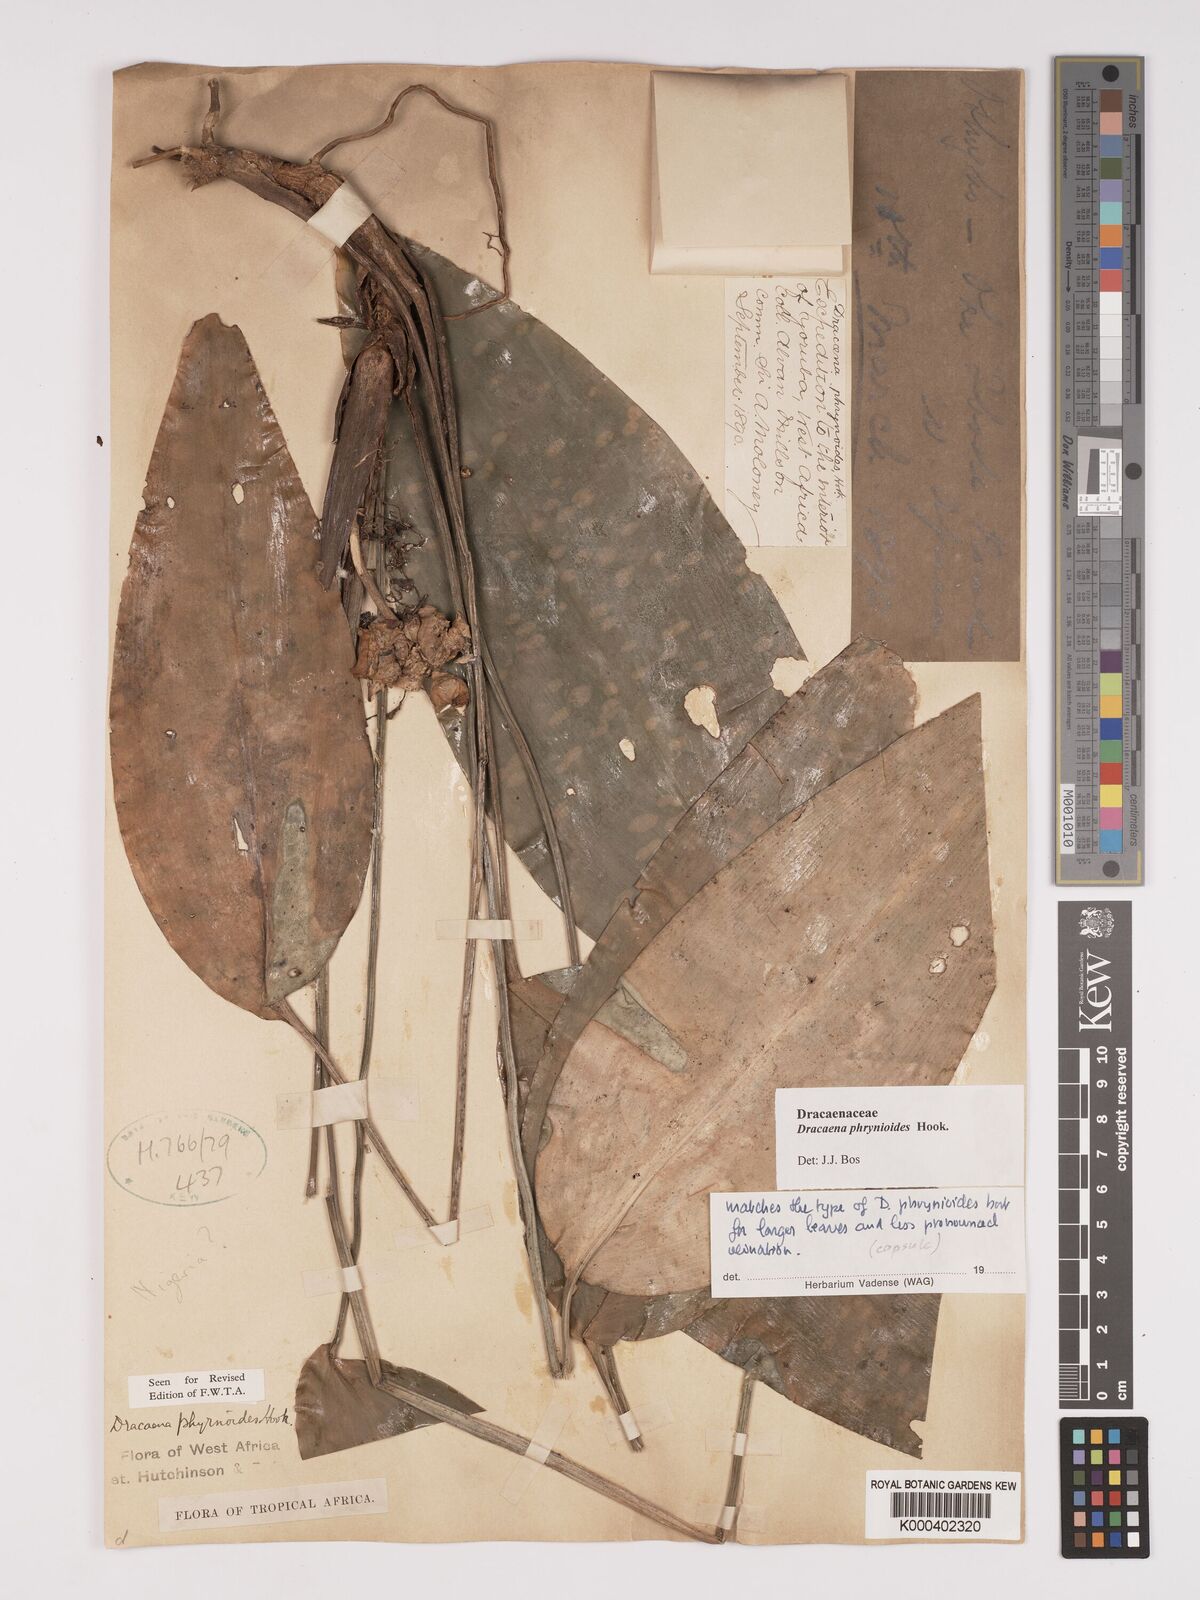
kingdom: Plantae
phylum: Tracheophyta
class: Liliopsida
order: Asparagales
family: Asparagaceae
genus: Dracaena
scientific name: Dracaena phrynioides
